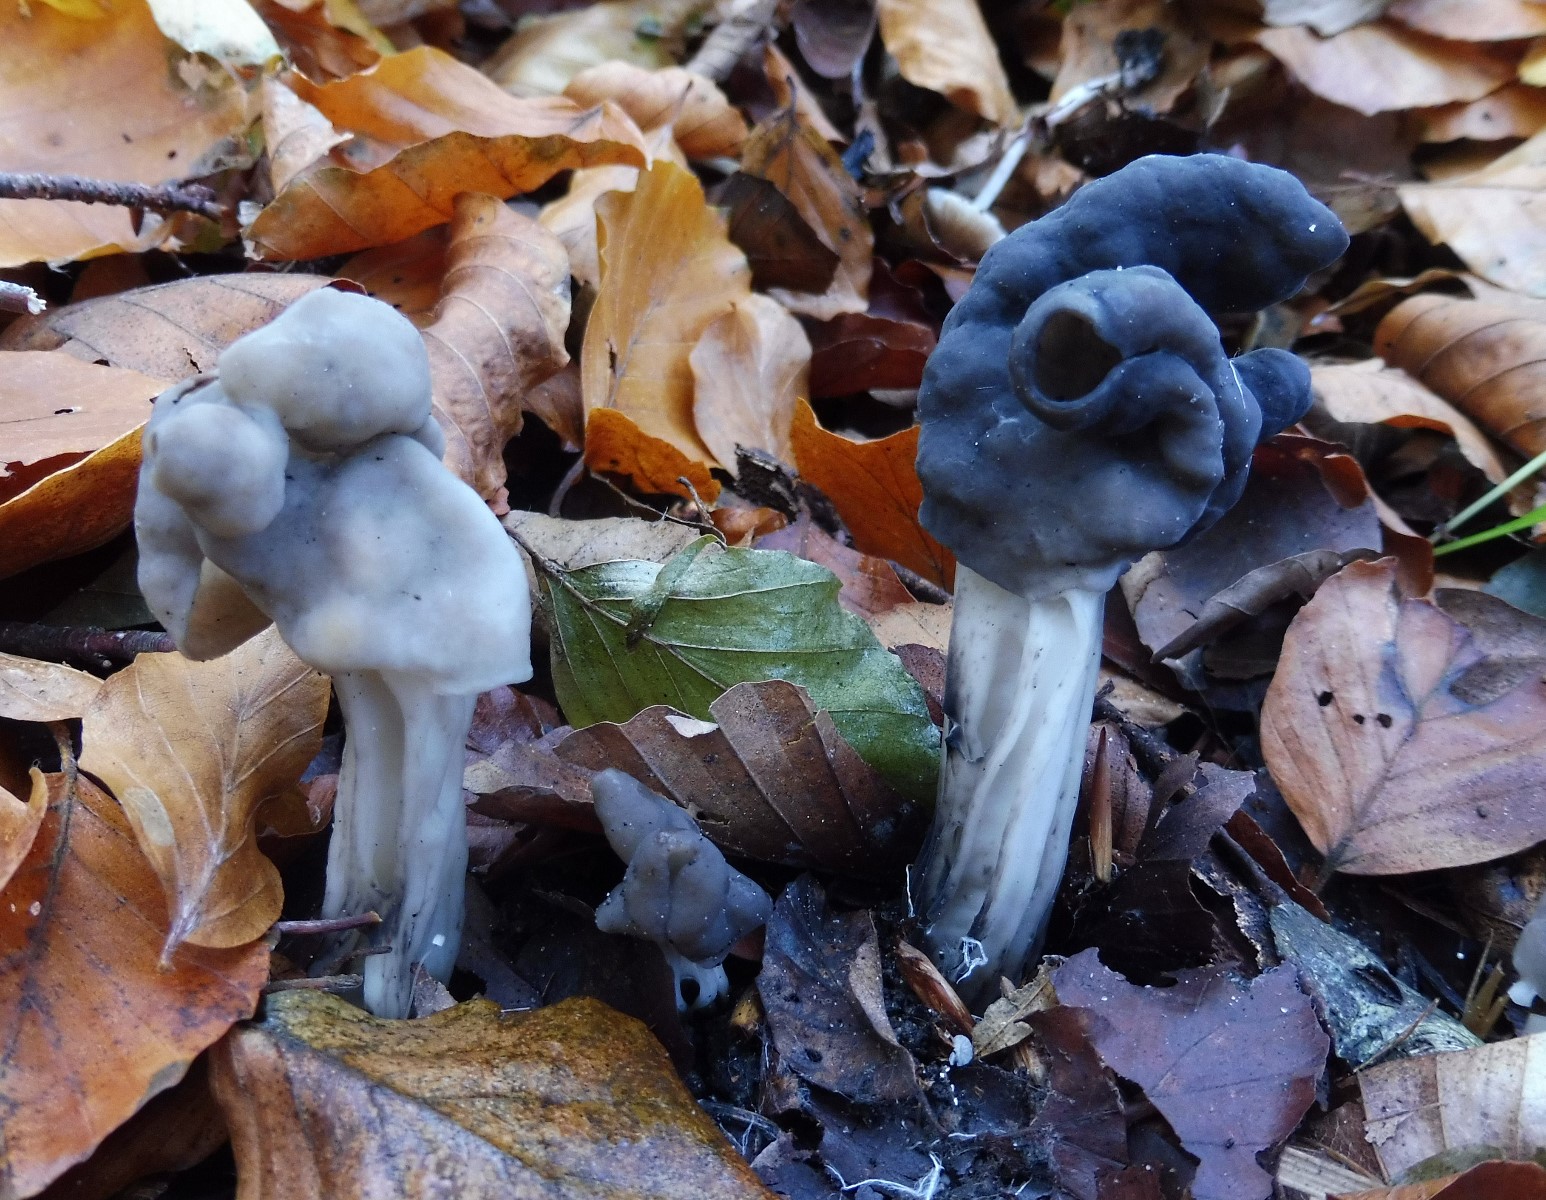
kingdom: Fungi
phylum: Ascomycota
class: Pezizomycetes
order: Pezizales
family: Helvellaceae
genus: Helvella
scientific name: Helvella lacunosa
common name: grubet foldhat
